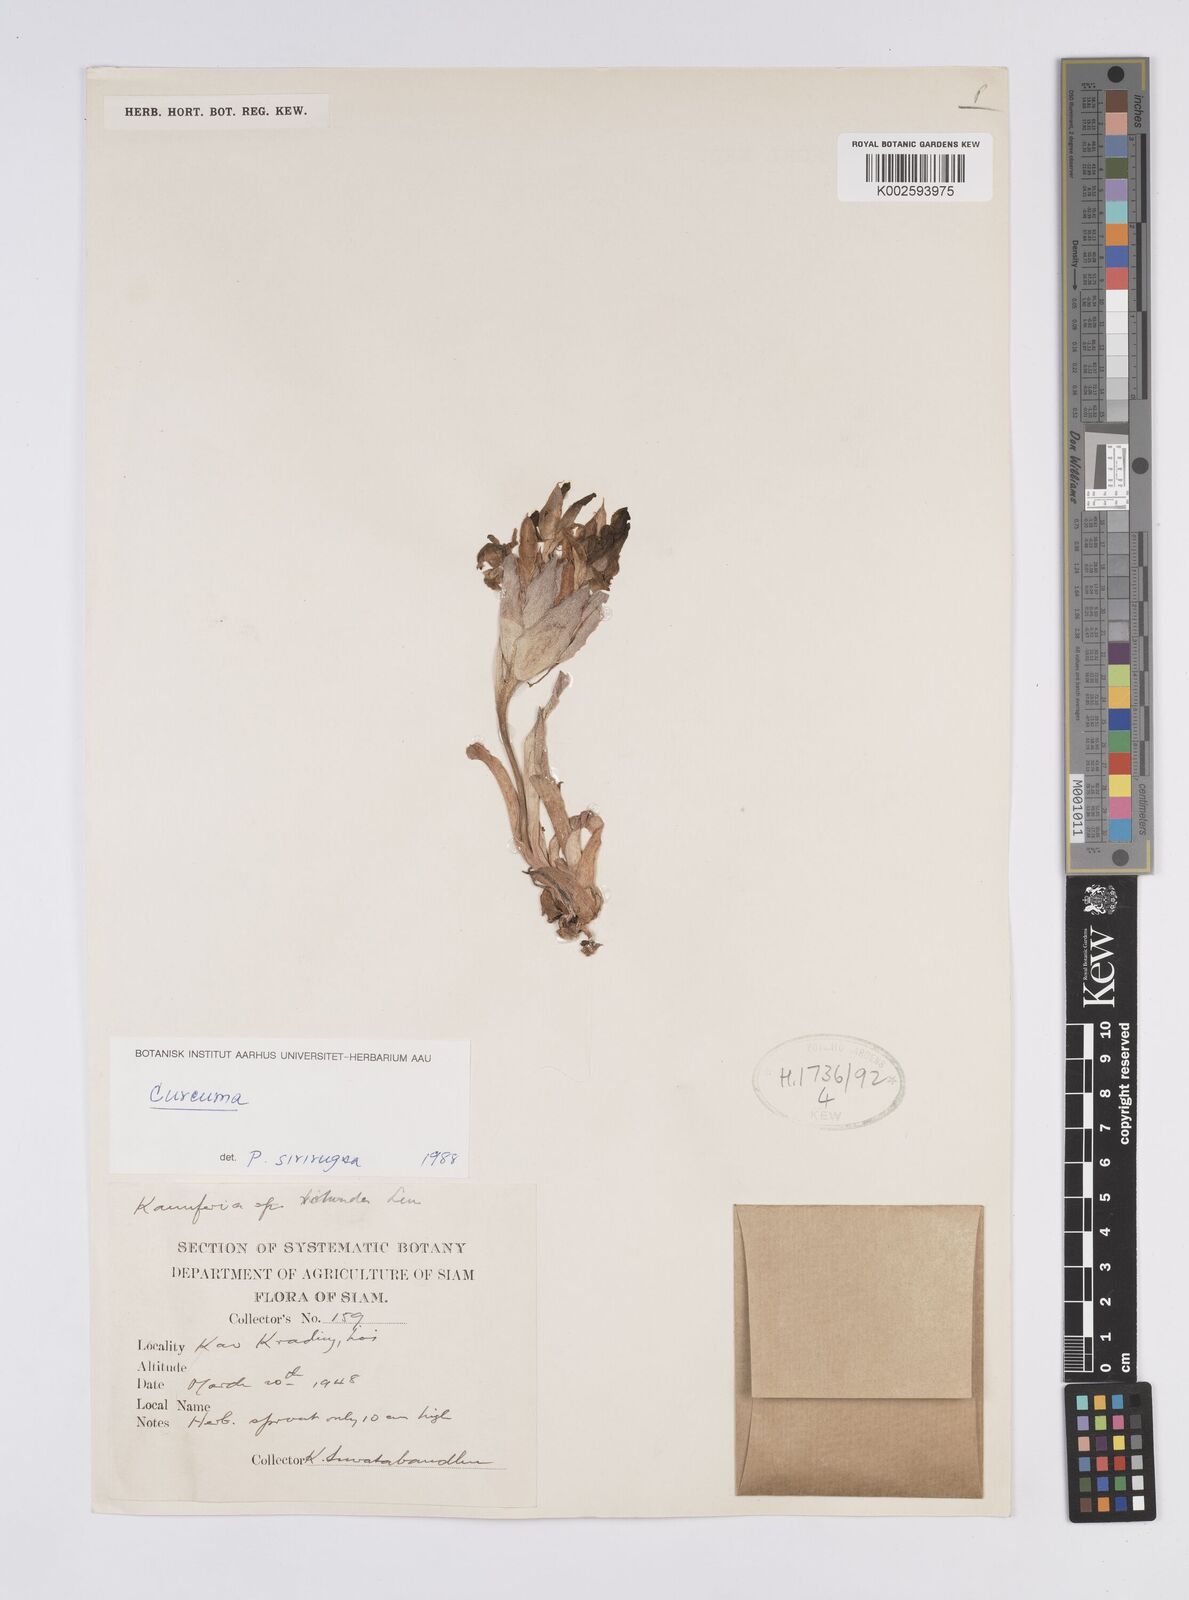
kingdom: Plantae
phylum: Tracheophyta
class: Liliopsida
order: Zingiberales
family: Zingiberaceae
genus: Curcuma
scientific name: Curcuma
